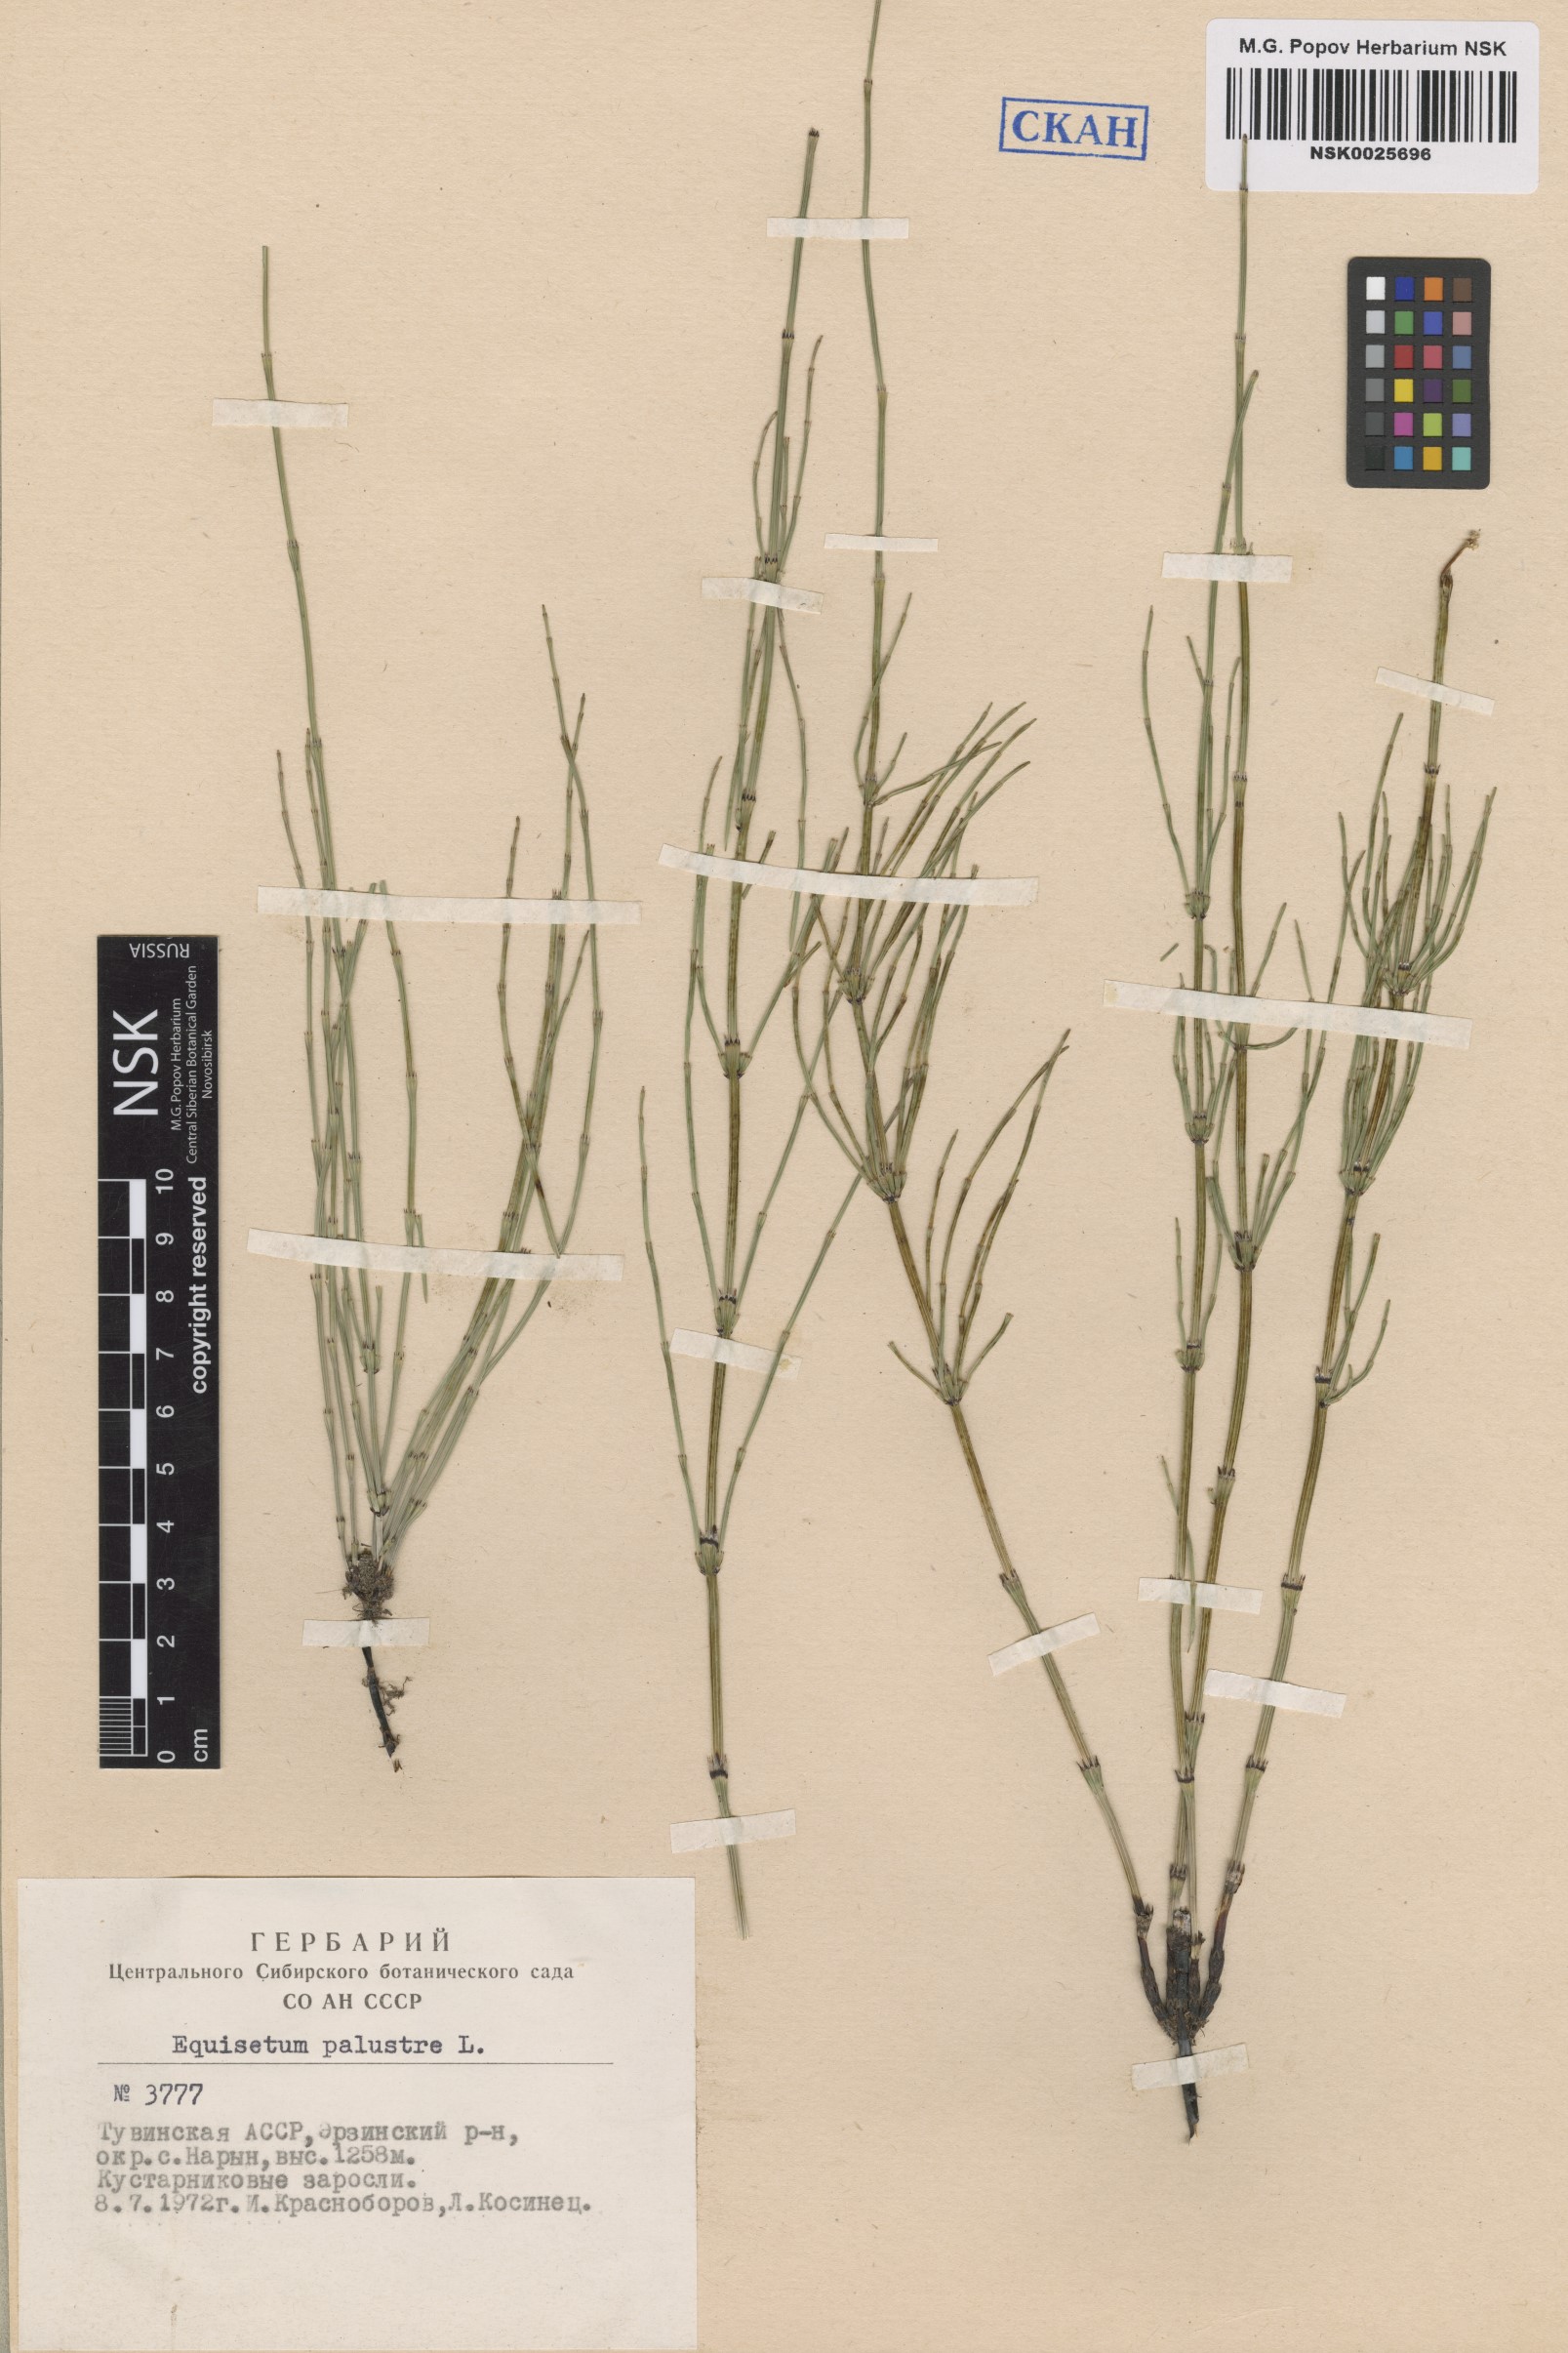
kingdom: Plantae
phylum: Tracheophyta
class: Polypodiopsida
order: Equisetales
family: Equisetaceae
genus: Equisetum
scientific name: Equisetum palustre
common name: Marsh horsetail
